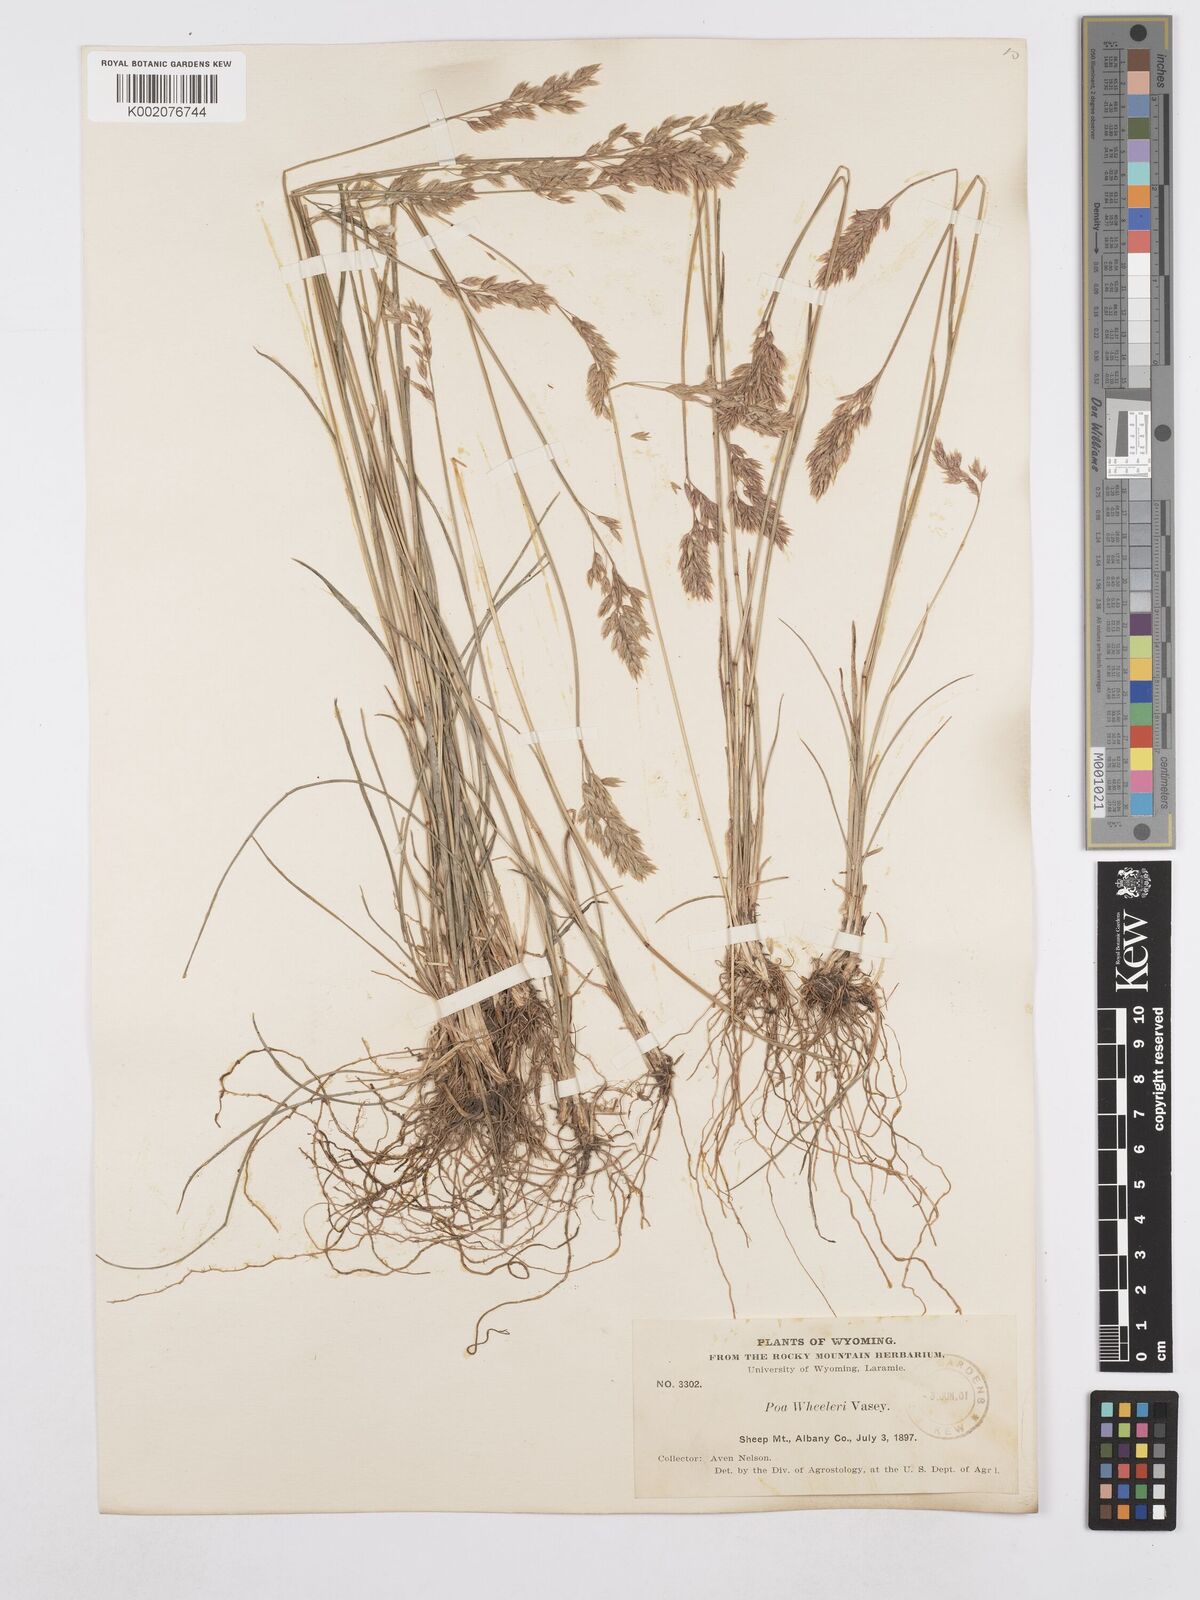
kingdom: Plantae
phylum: Tracheophyta
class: Liliopsida
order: Poales
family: Poaceae
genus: Poa
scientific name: Poa wheeleri
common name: Wheeler's bluegrass
